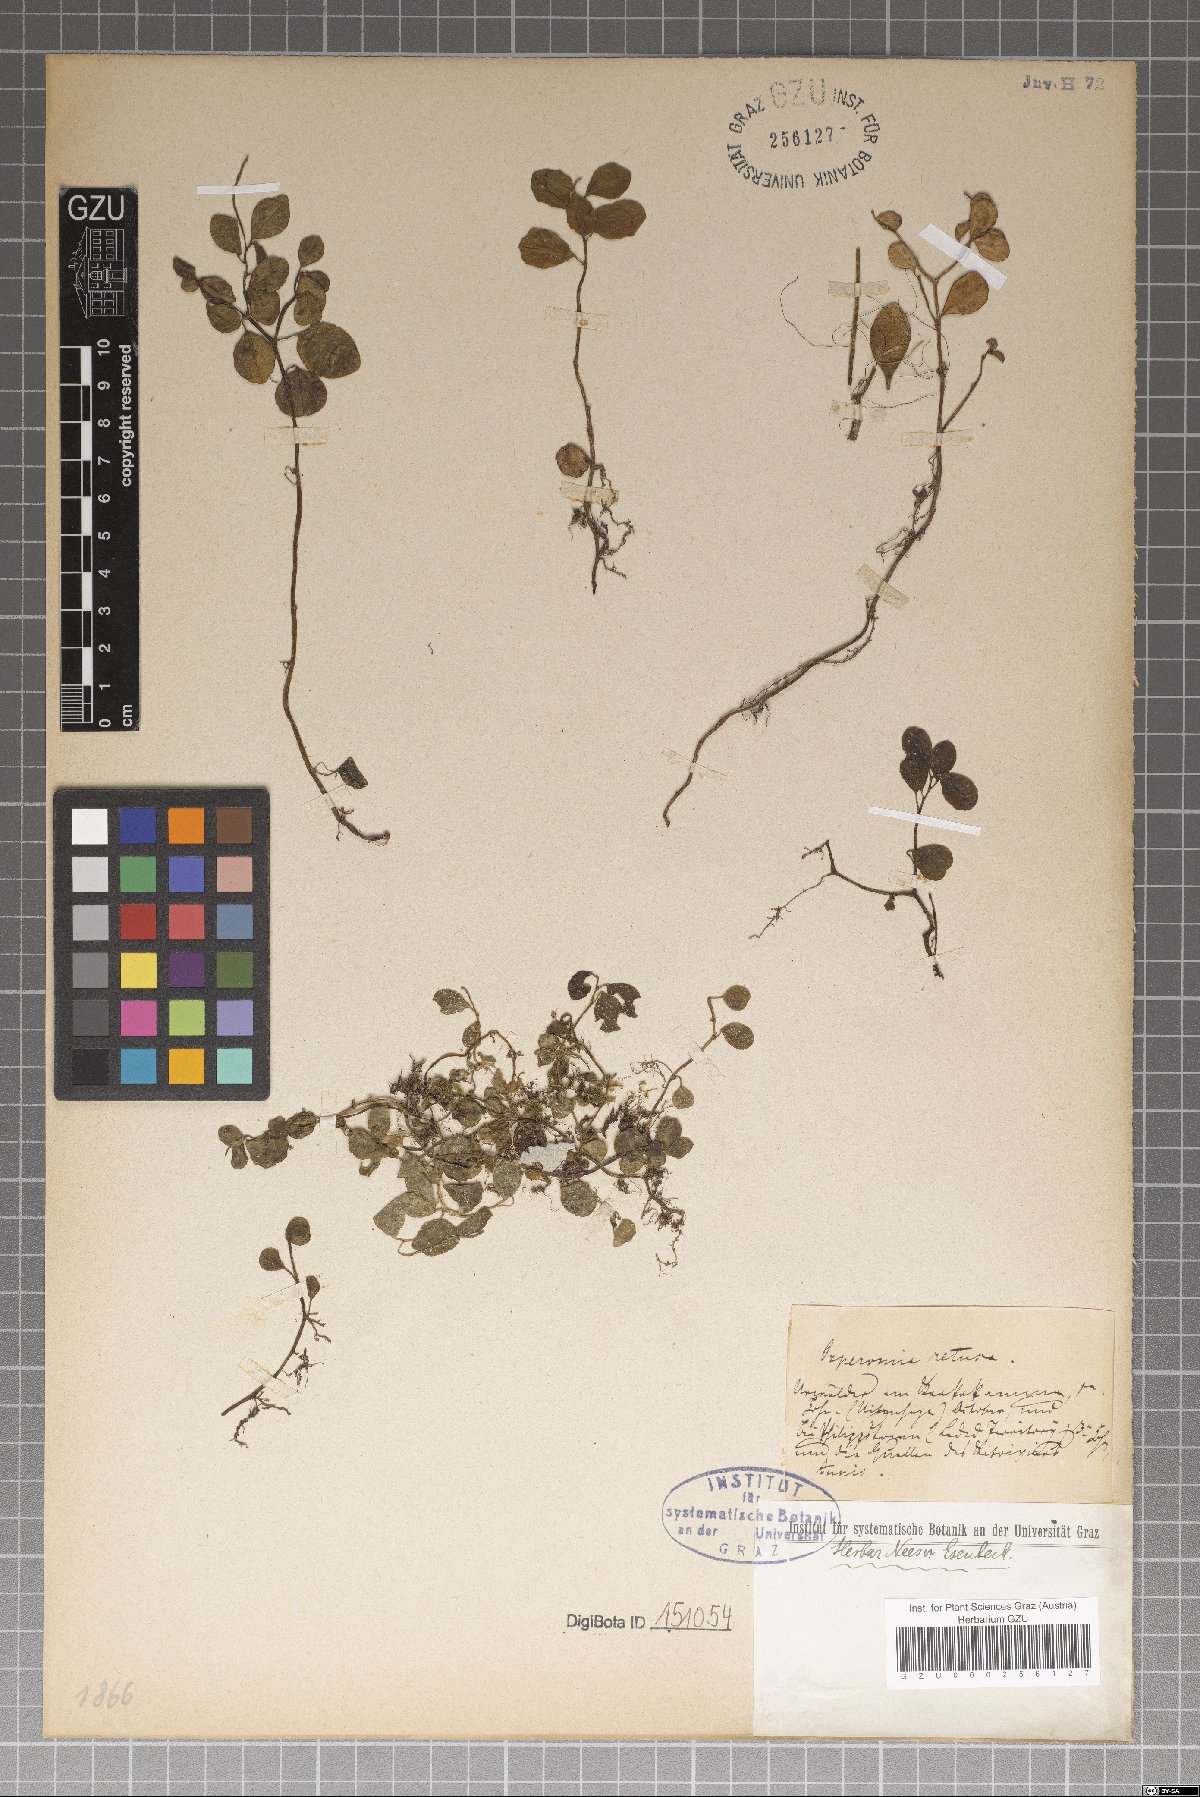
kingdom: Plantae
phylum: Tracheophyta
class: Magnoliopsida
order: Piperales
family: Piperaceae
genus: Peperomia
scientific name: Peperomia retusa
